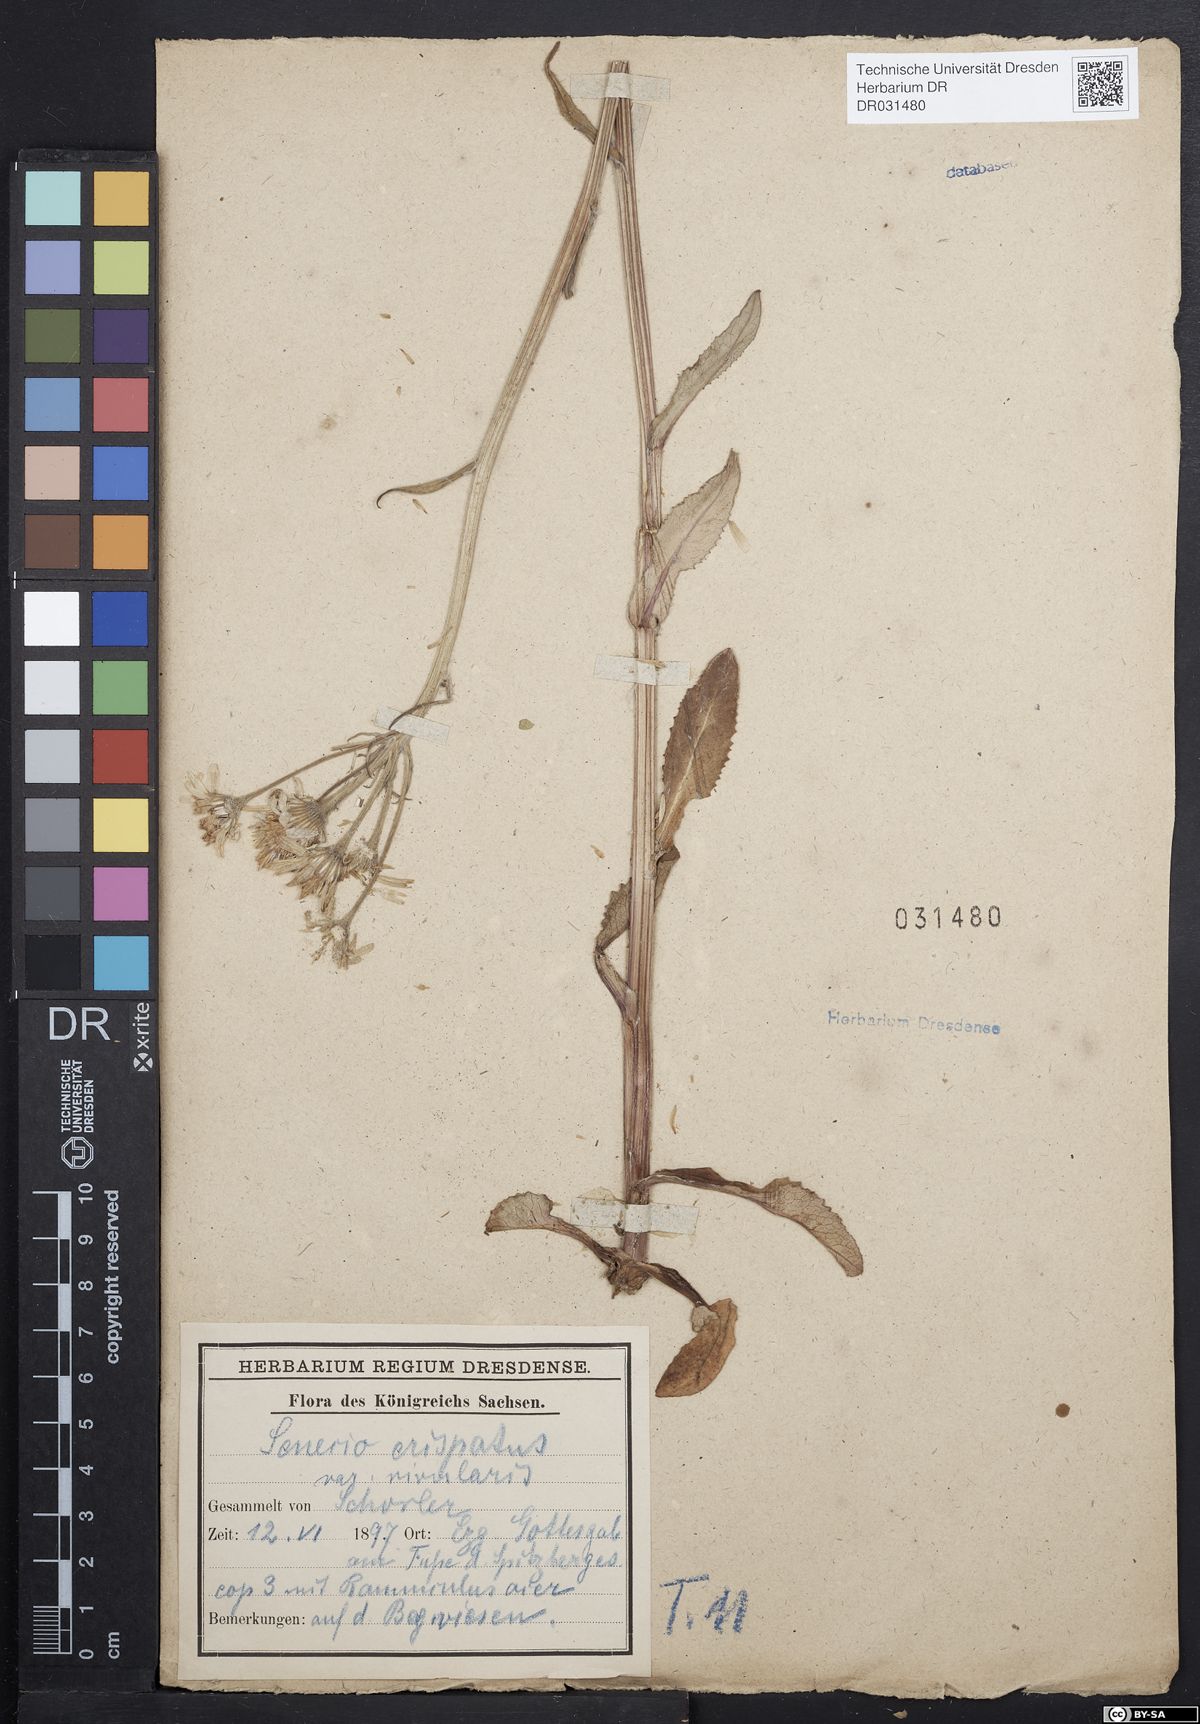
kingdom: Plantae
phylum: Tracheophyta
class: Magnoliopsida
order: Asterales
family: Asteraceae
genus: Tephroseris
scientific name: Tephroseris crispa
